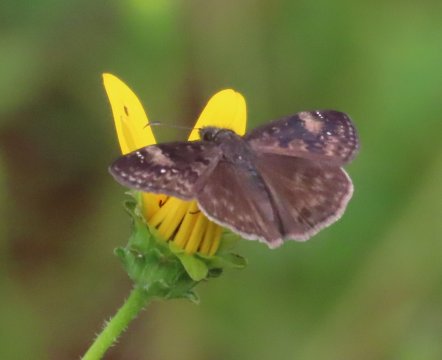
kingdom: Animalia
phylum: Arthropoda
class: Insecta
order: Lepidoptera
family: Hesperiidae
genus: Erynnis
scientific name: Erynnis zarucco
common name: Zarucco Duskywing
